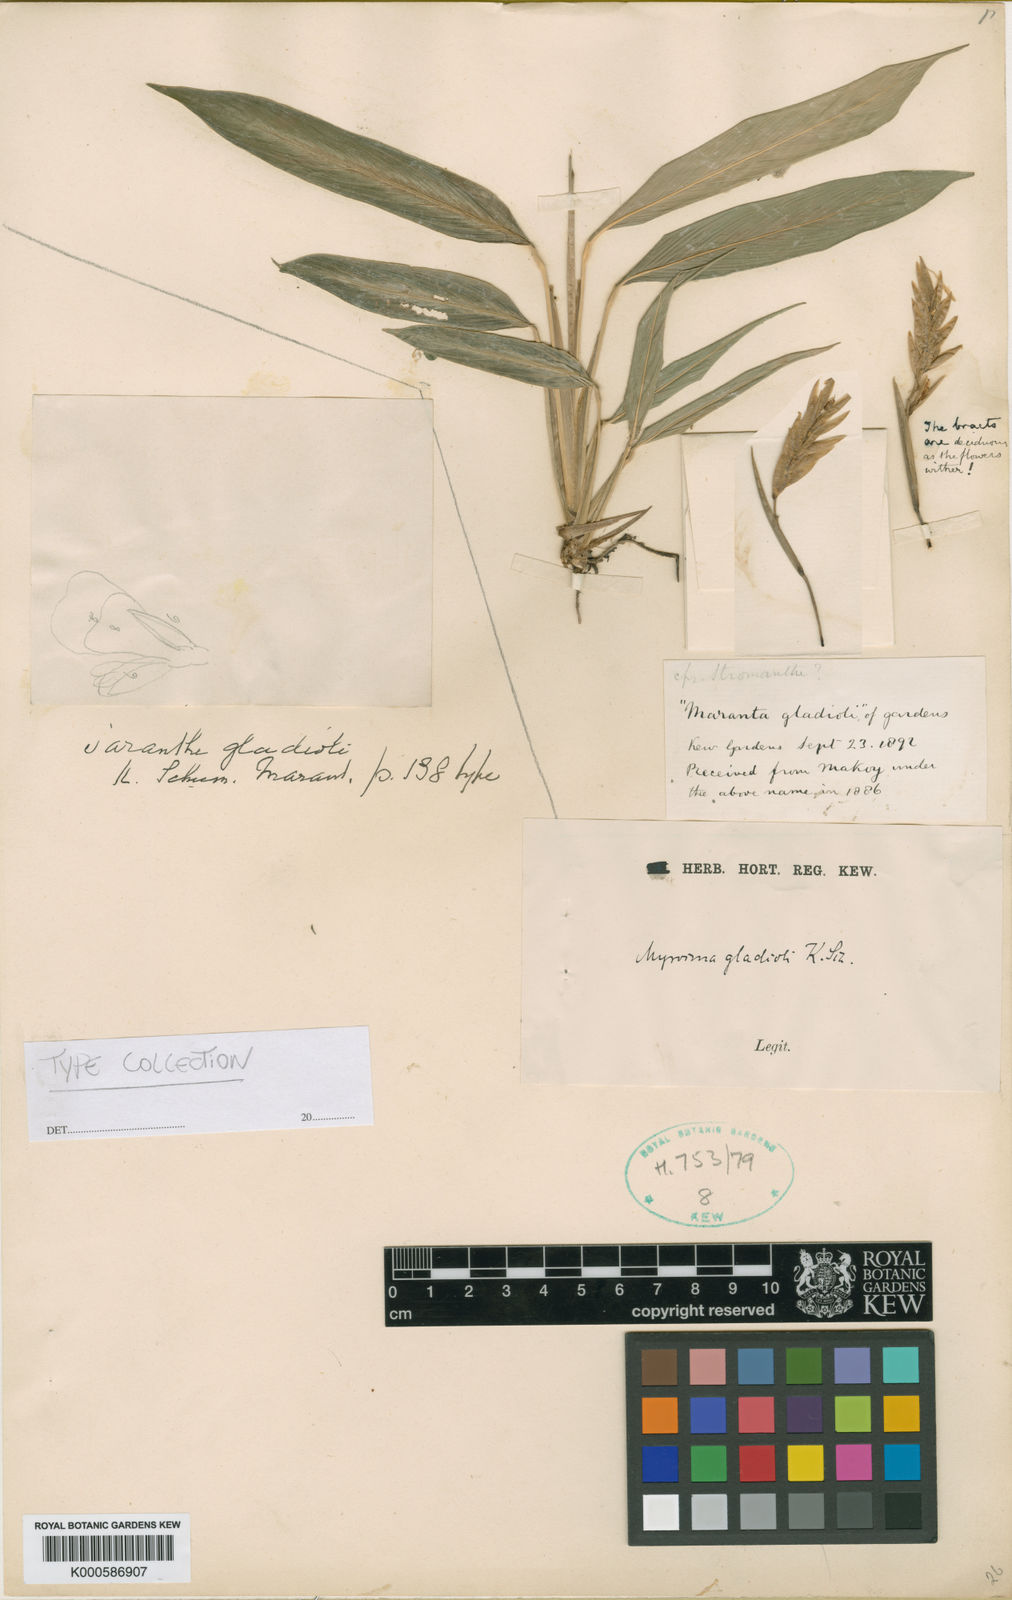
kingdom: Plantae
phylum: Tracheophyta
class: Liliopsida
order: Zingiberales
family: Marantaceae
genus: Saranthe
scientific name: Saranthe gladioli
